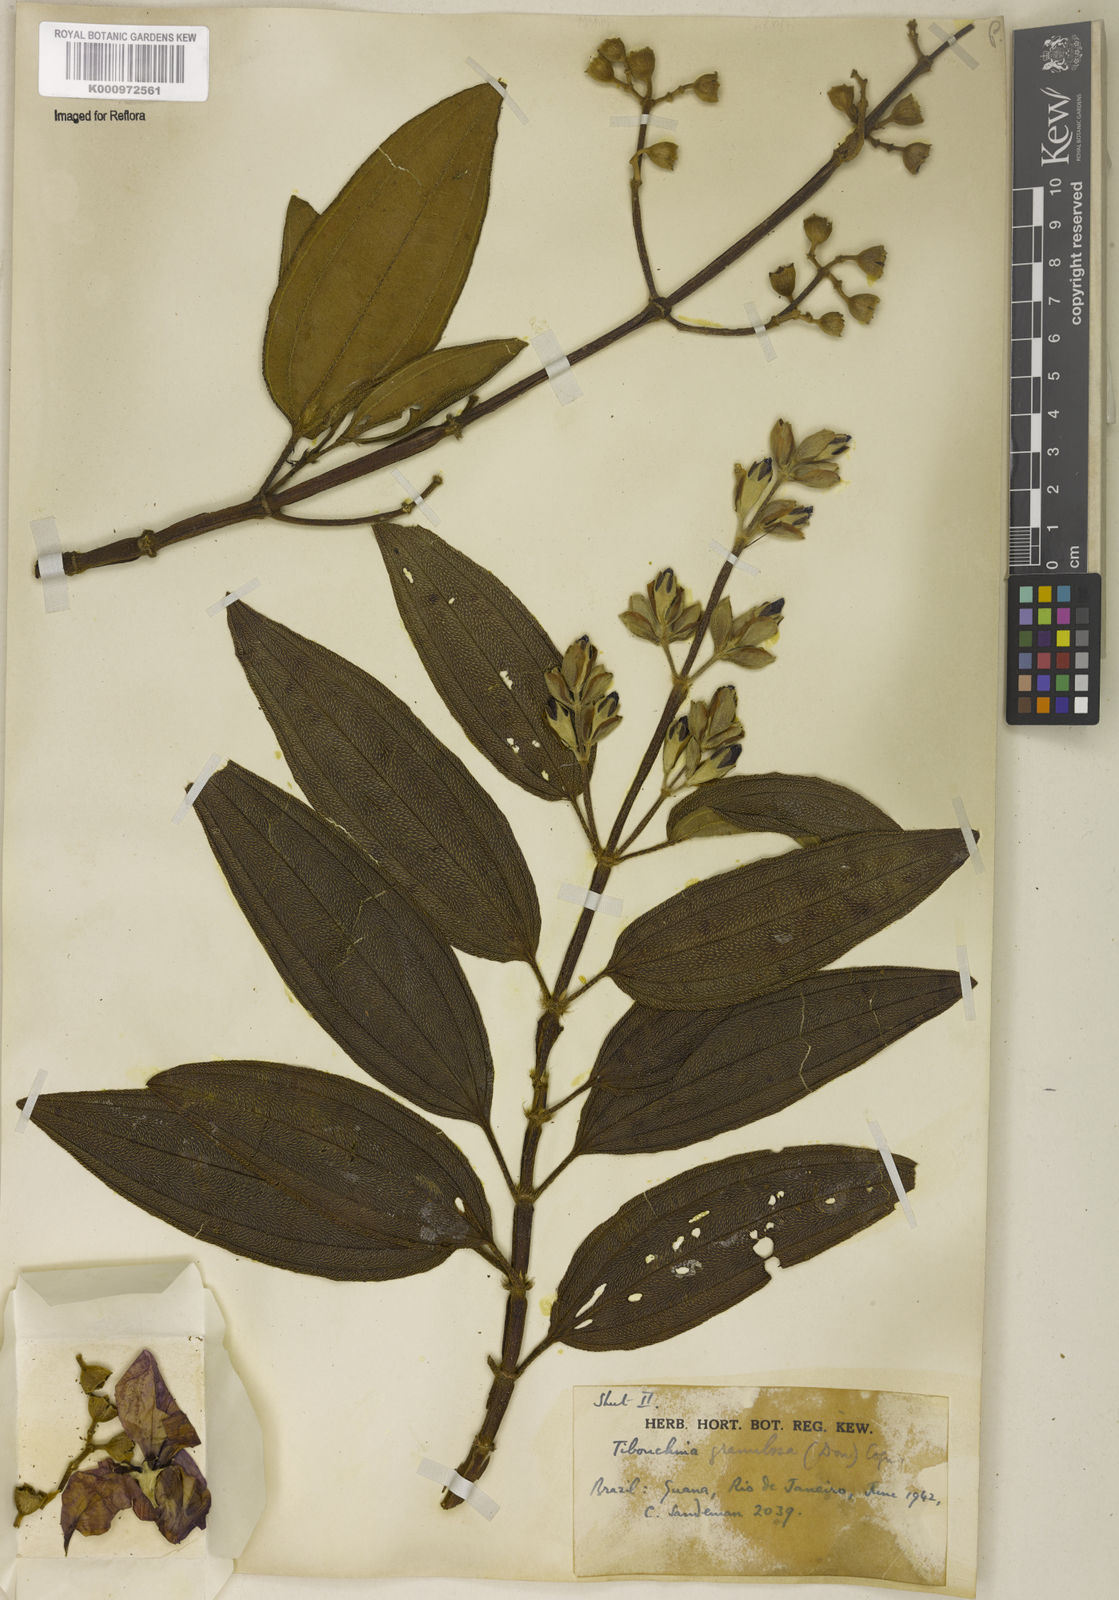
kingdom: Plantae
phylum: Tracheophyta
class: Magnoliopsida
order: Myrtales
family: Melastomataceae
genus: Pleroma
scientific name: Pleroma granulosum
